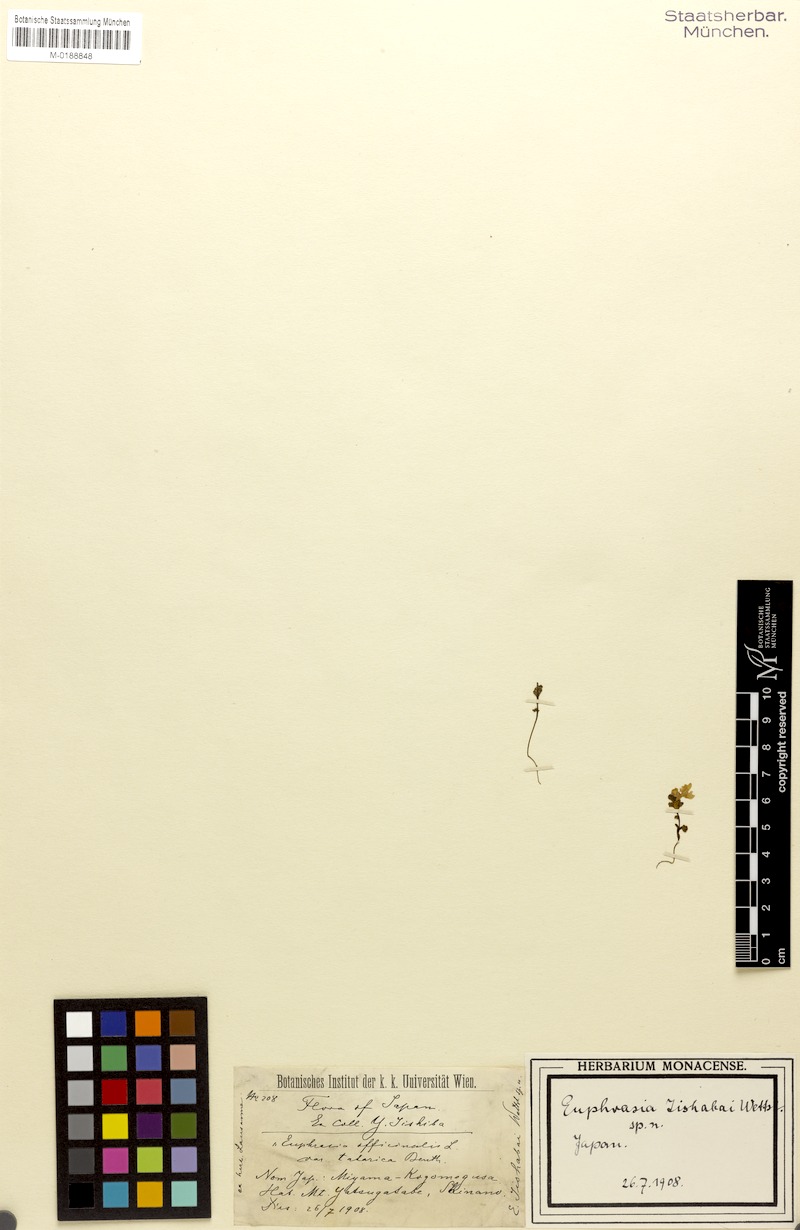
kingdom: Plantae
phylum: Tracheophyta
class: Magnoliopsida
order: Lamiales
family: Orobanchaceae
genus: Euphrasia
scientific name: Euphrasia
